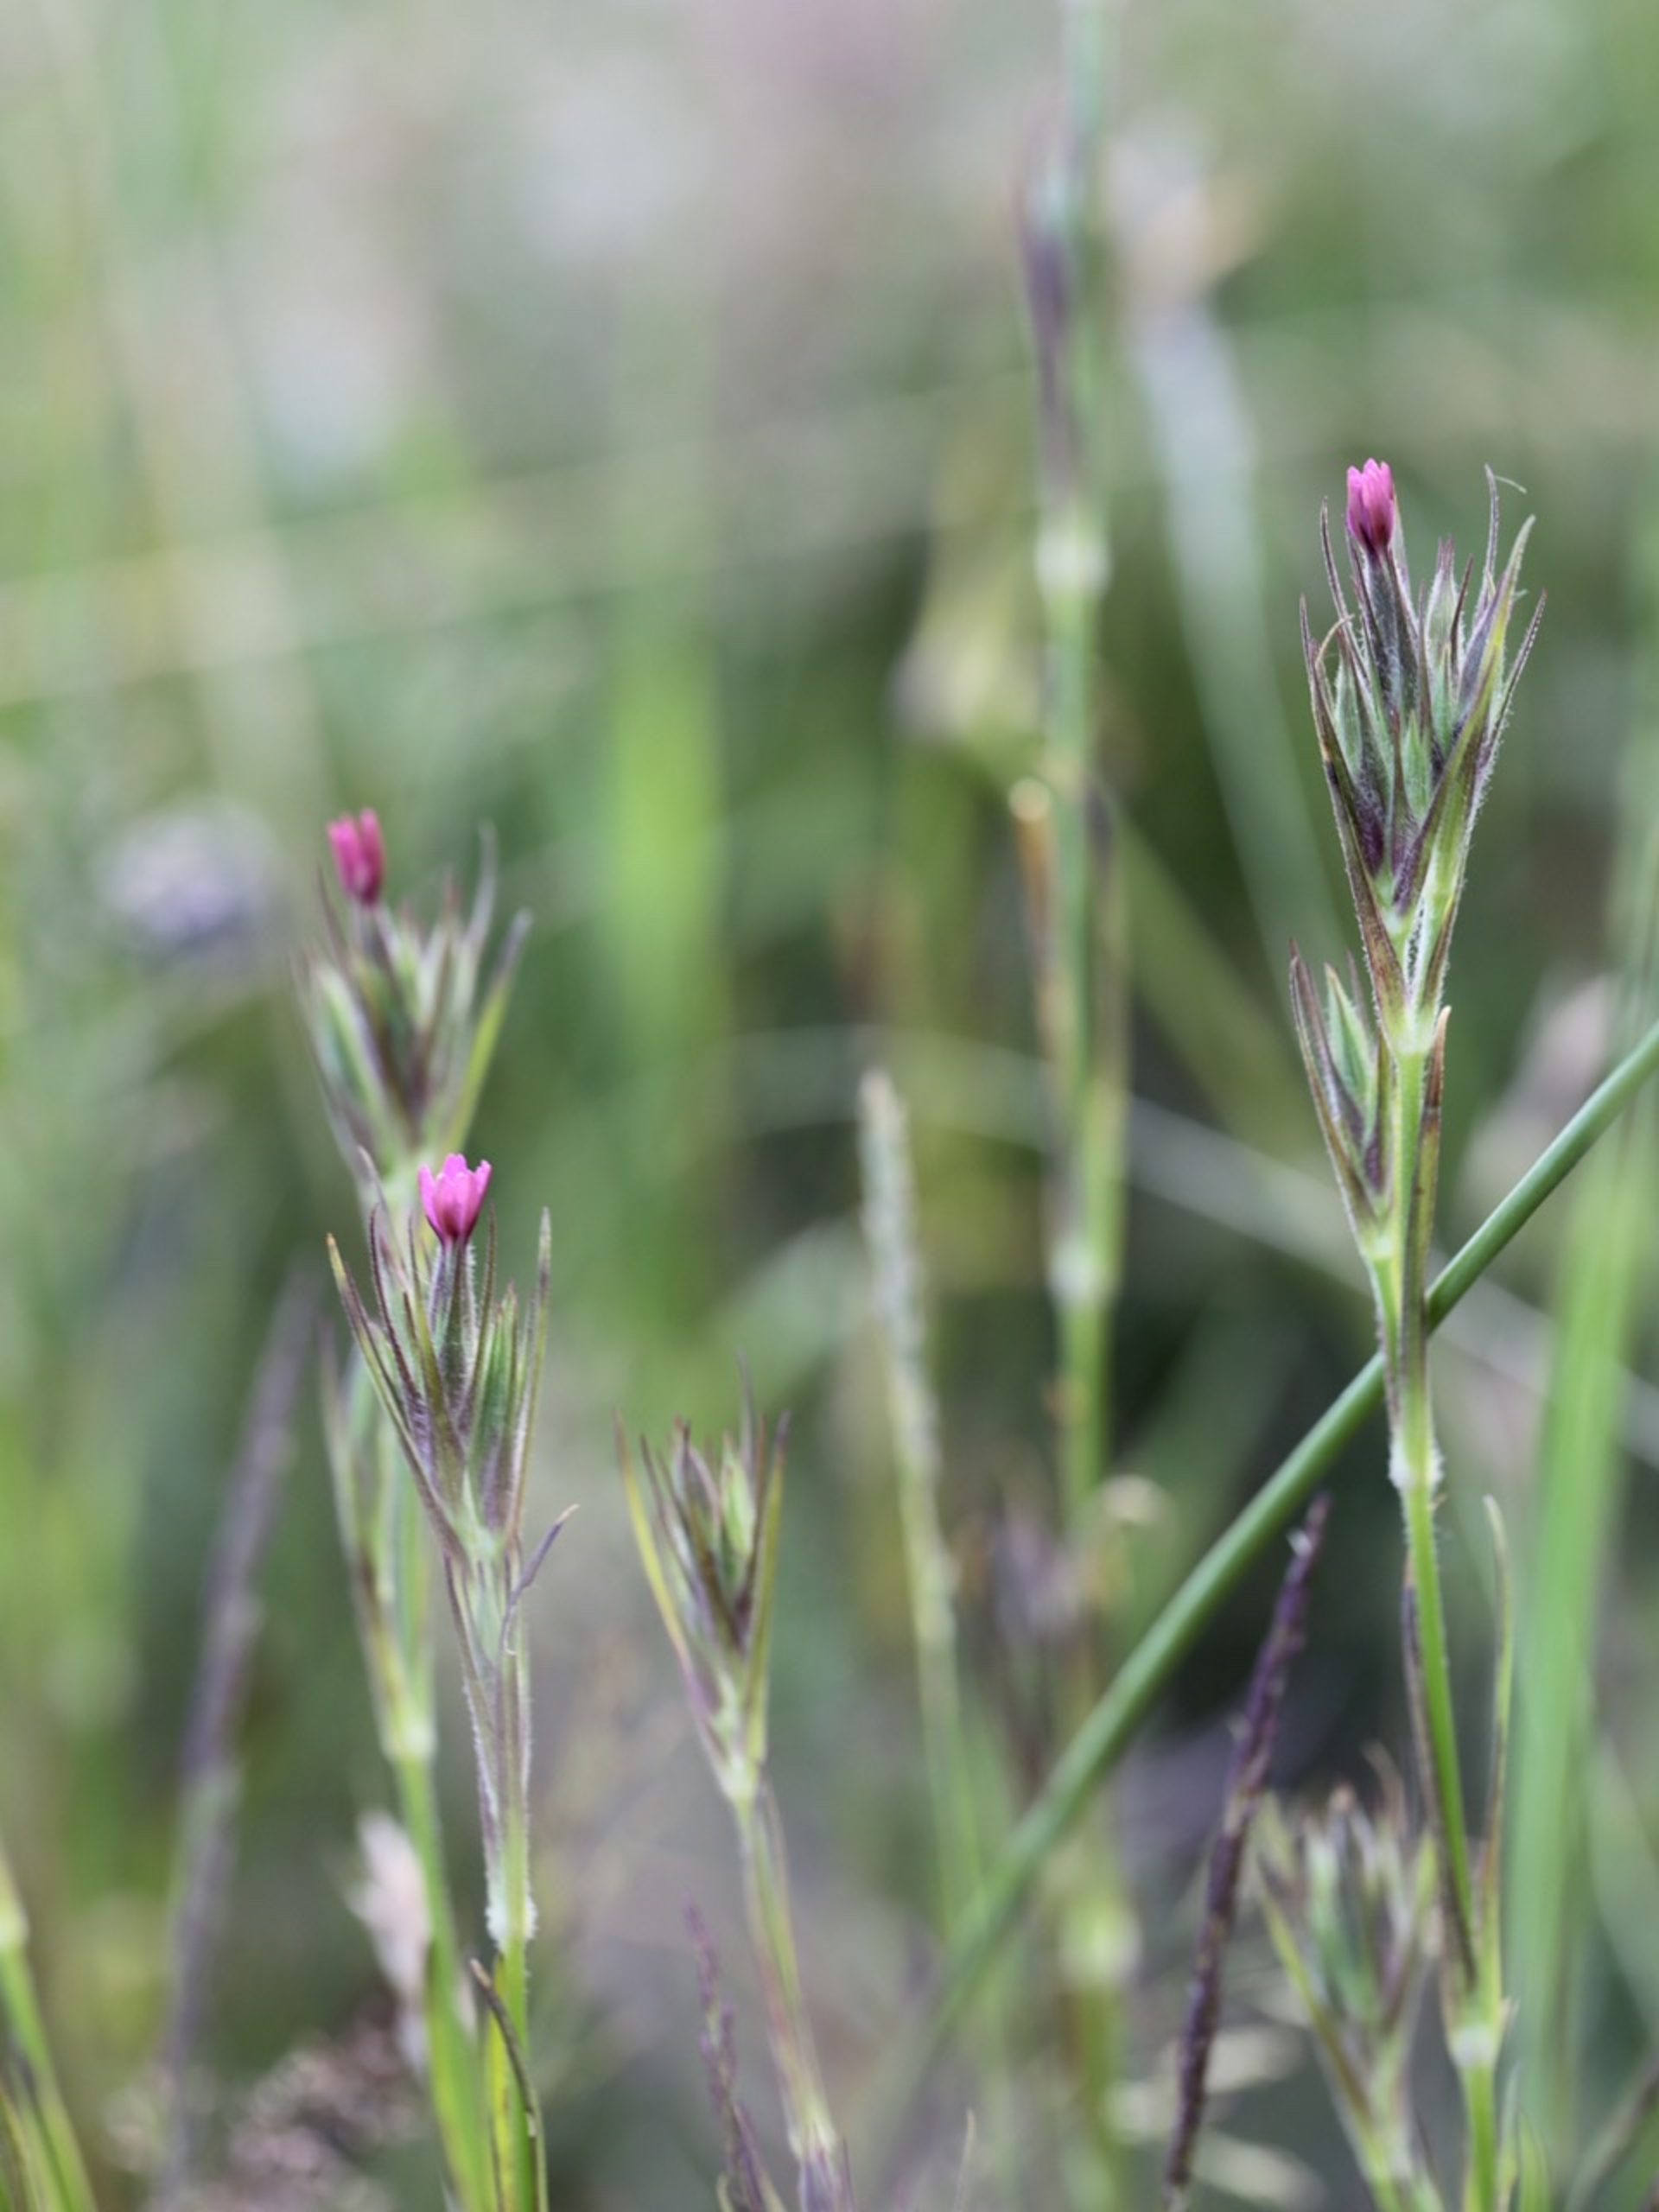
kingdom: Plantae
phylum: Tracheophyta
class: Magnoliopsida
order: Caryophyllales
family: Caryophyllaceae
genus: Dianthus
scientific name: Dianthus armeria
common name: Kost-nellike
